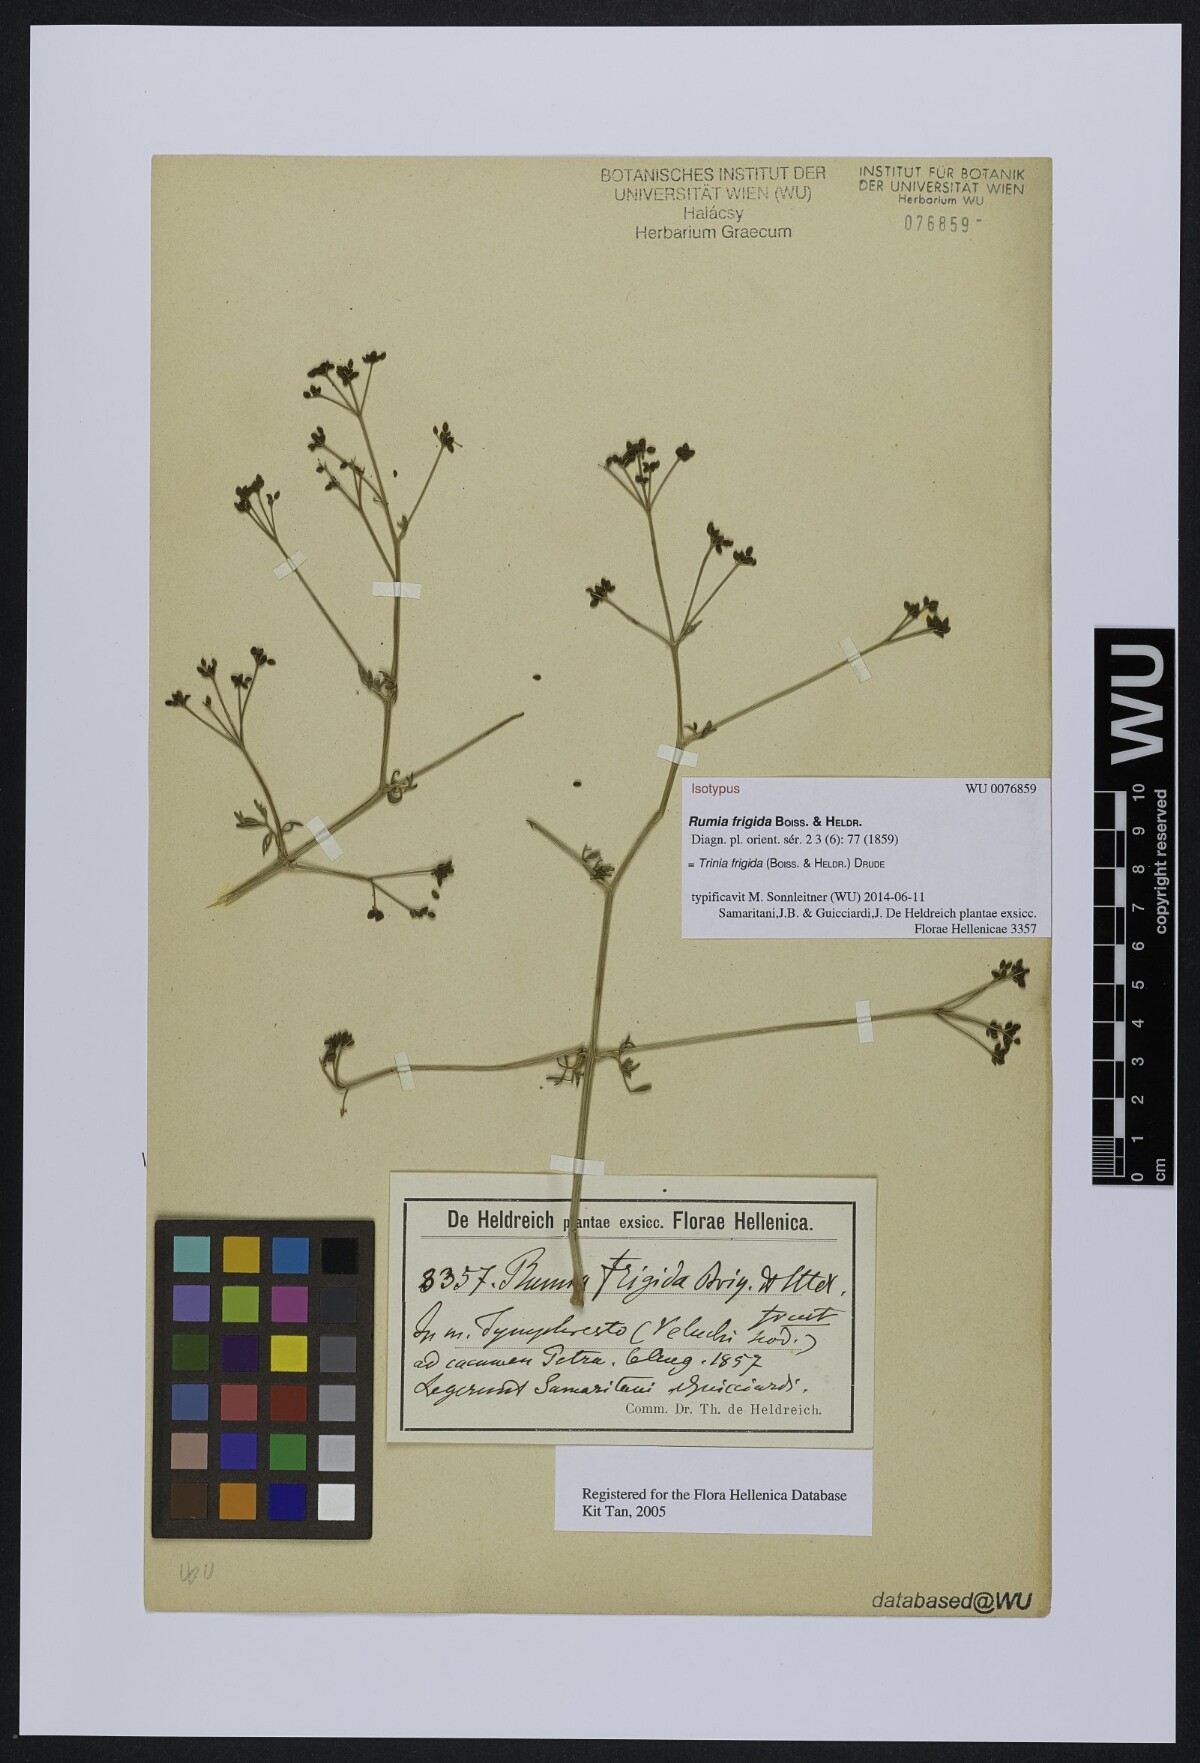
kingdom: Plantae
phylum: Tracheophyta
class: Magnoliopsida
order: Apiales
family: Apiaceae
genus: Trinia
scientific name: Trinia frigida
